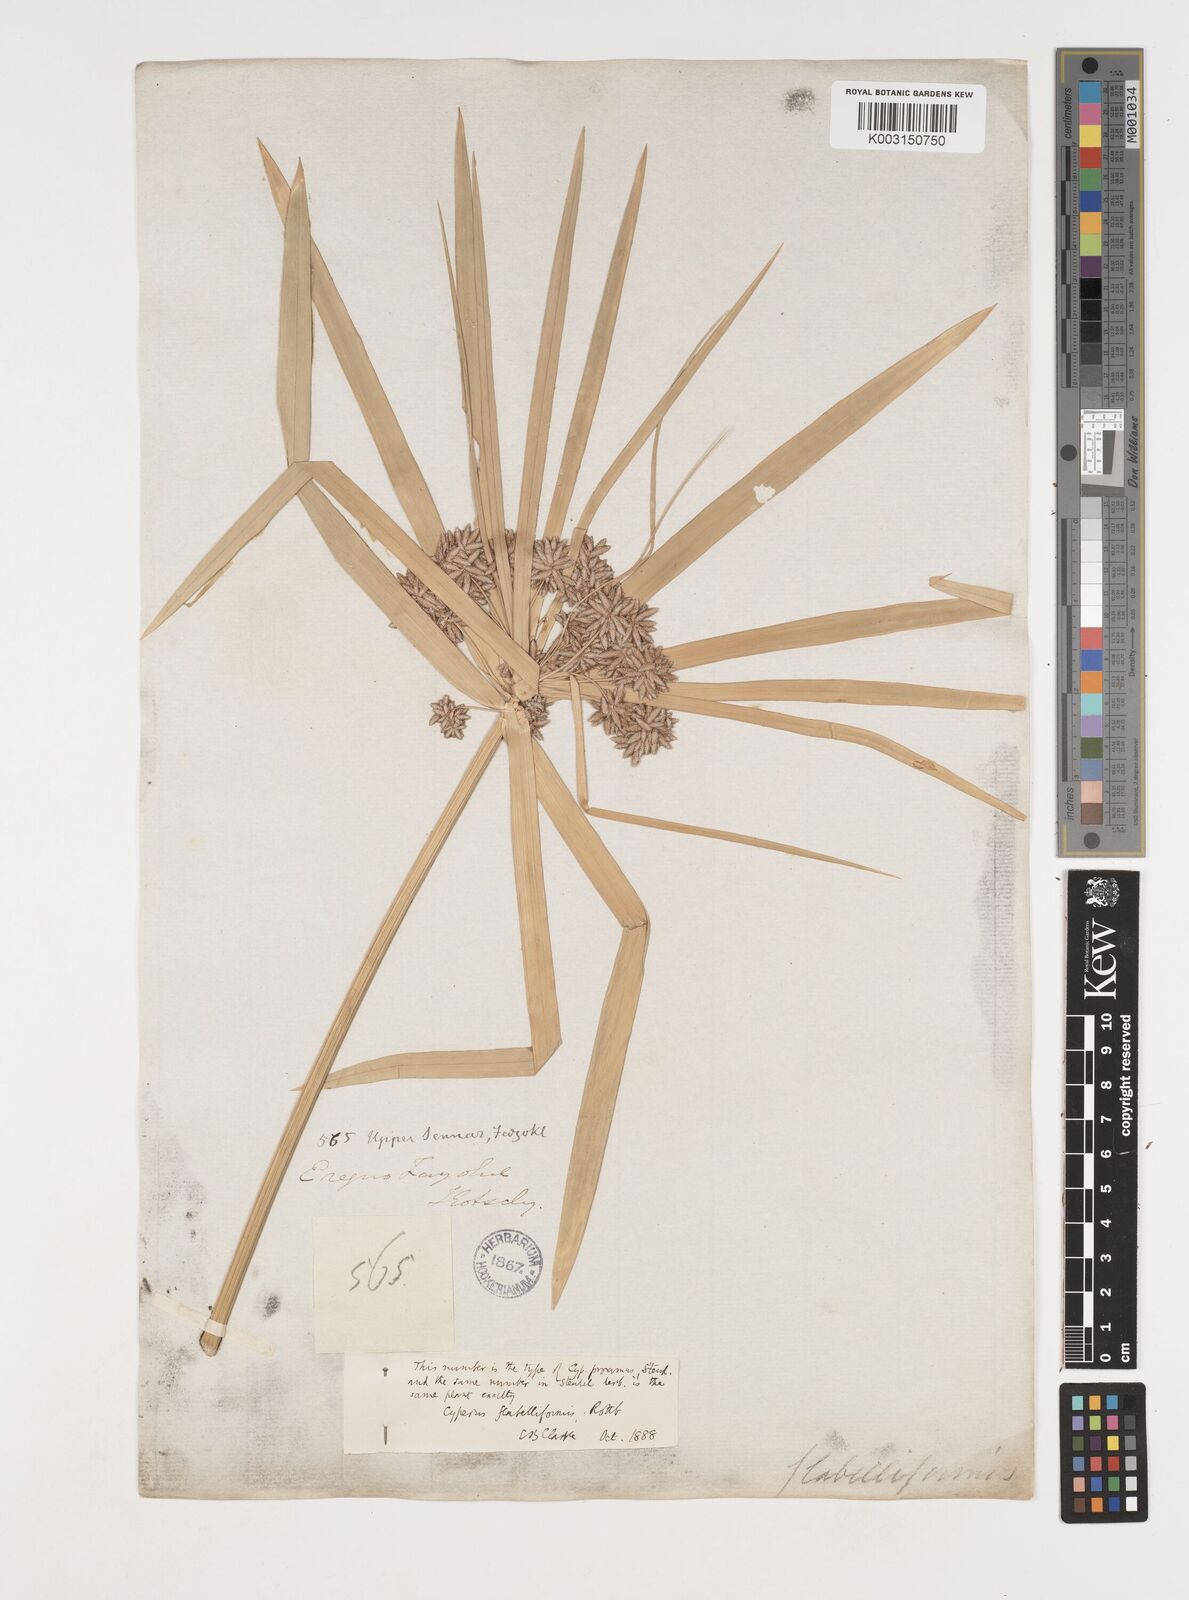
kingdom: Plantae
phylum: Tracheophyta
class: Liliopsida
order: Poales
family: Cyperaceae
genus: Cyperus
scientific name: Cyperus alternifolius
